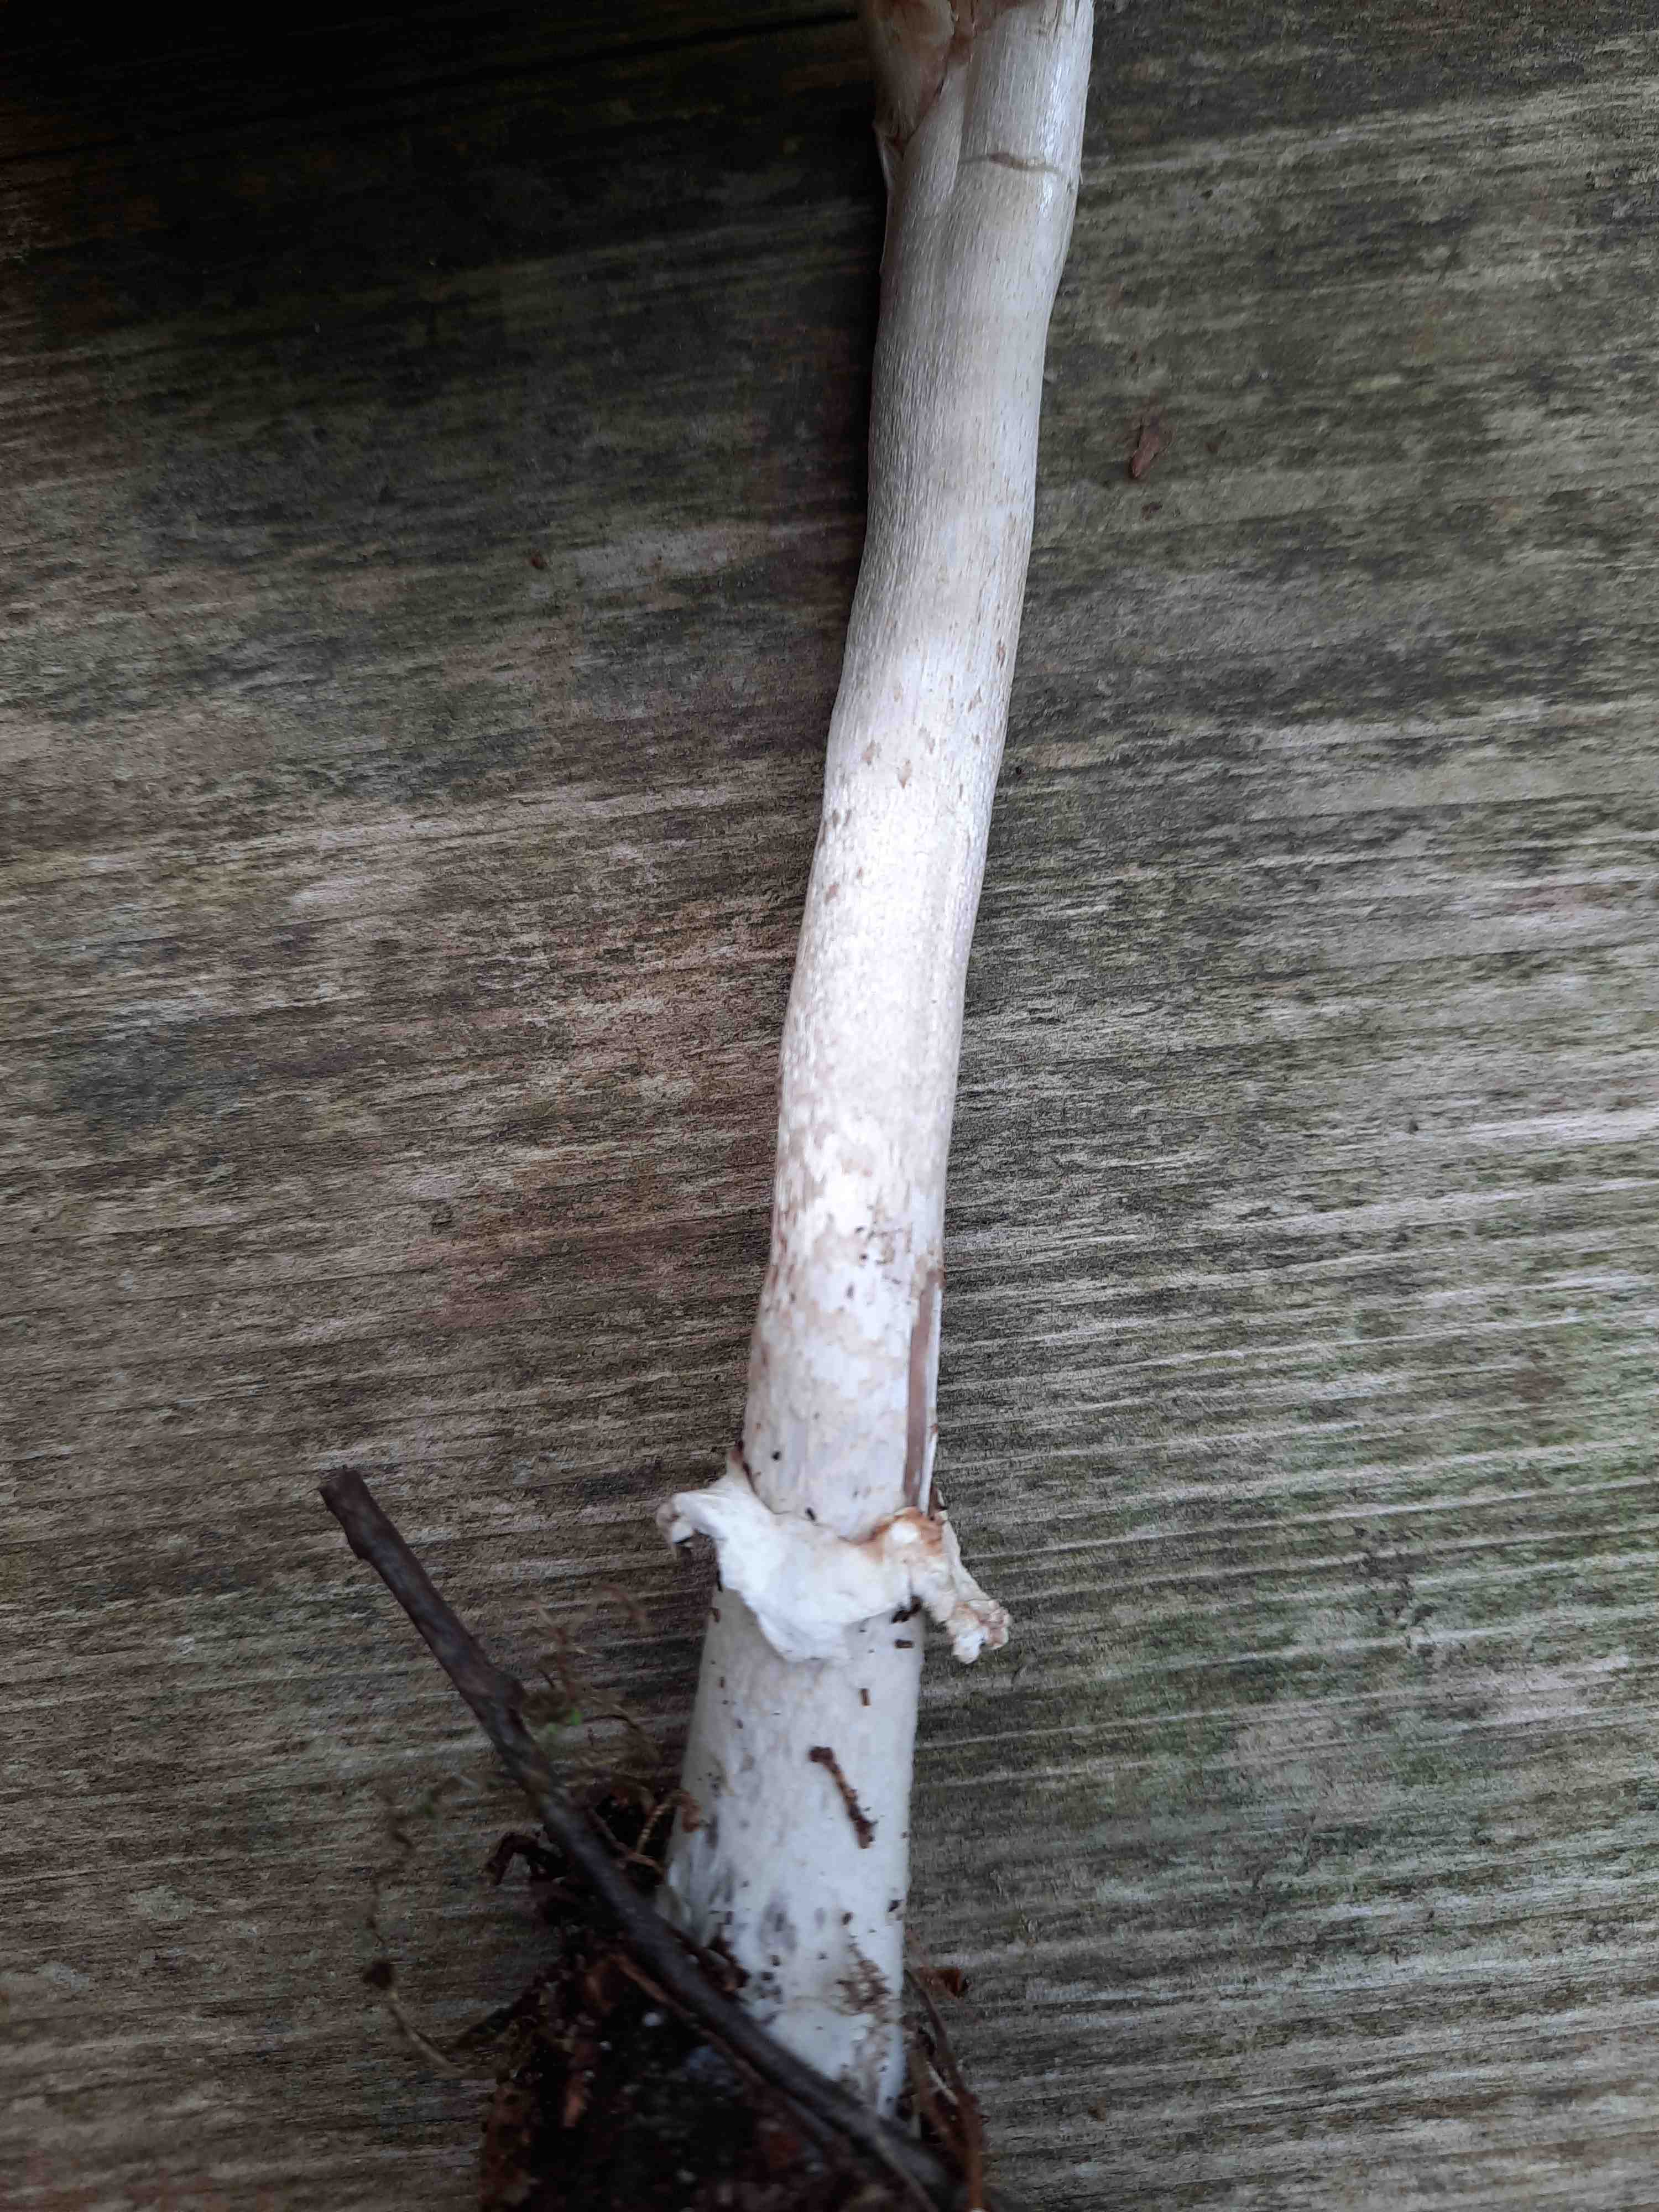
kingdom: Fungi
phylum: Basidiomycota
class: Agaricomycetes
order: Agaricales
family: Agaricaceae
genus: Macrolepiota
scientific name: Macrolepiota mastoidea
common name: puklet kæmpeparasolhat
